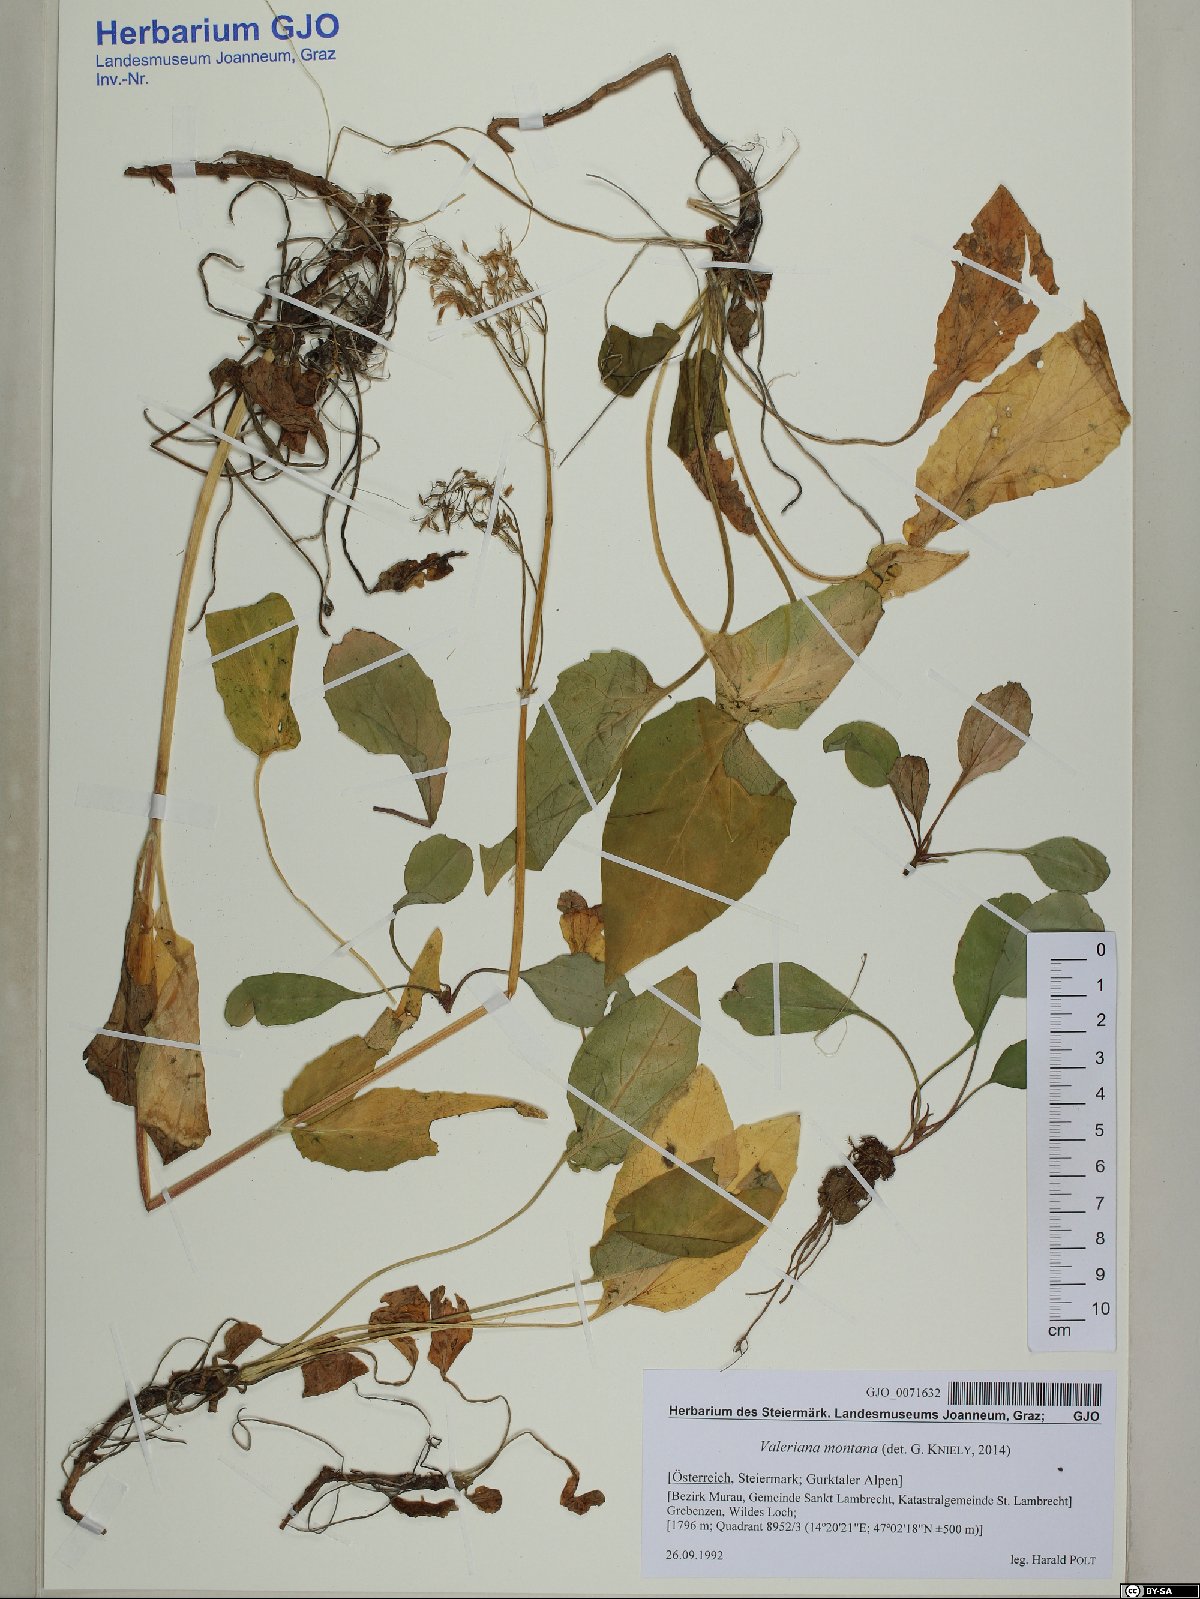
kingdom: Plantae
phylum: Tracheophyta
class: Magnoliopsida
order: Dipsacales
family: Caprifoliaceae
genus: Valeriana
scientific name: Valeriana montana
